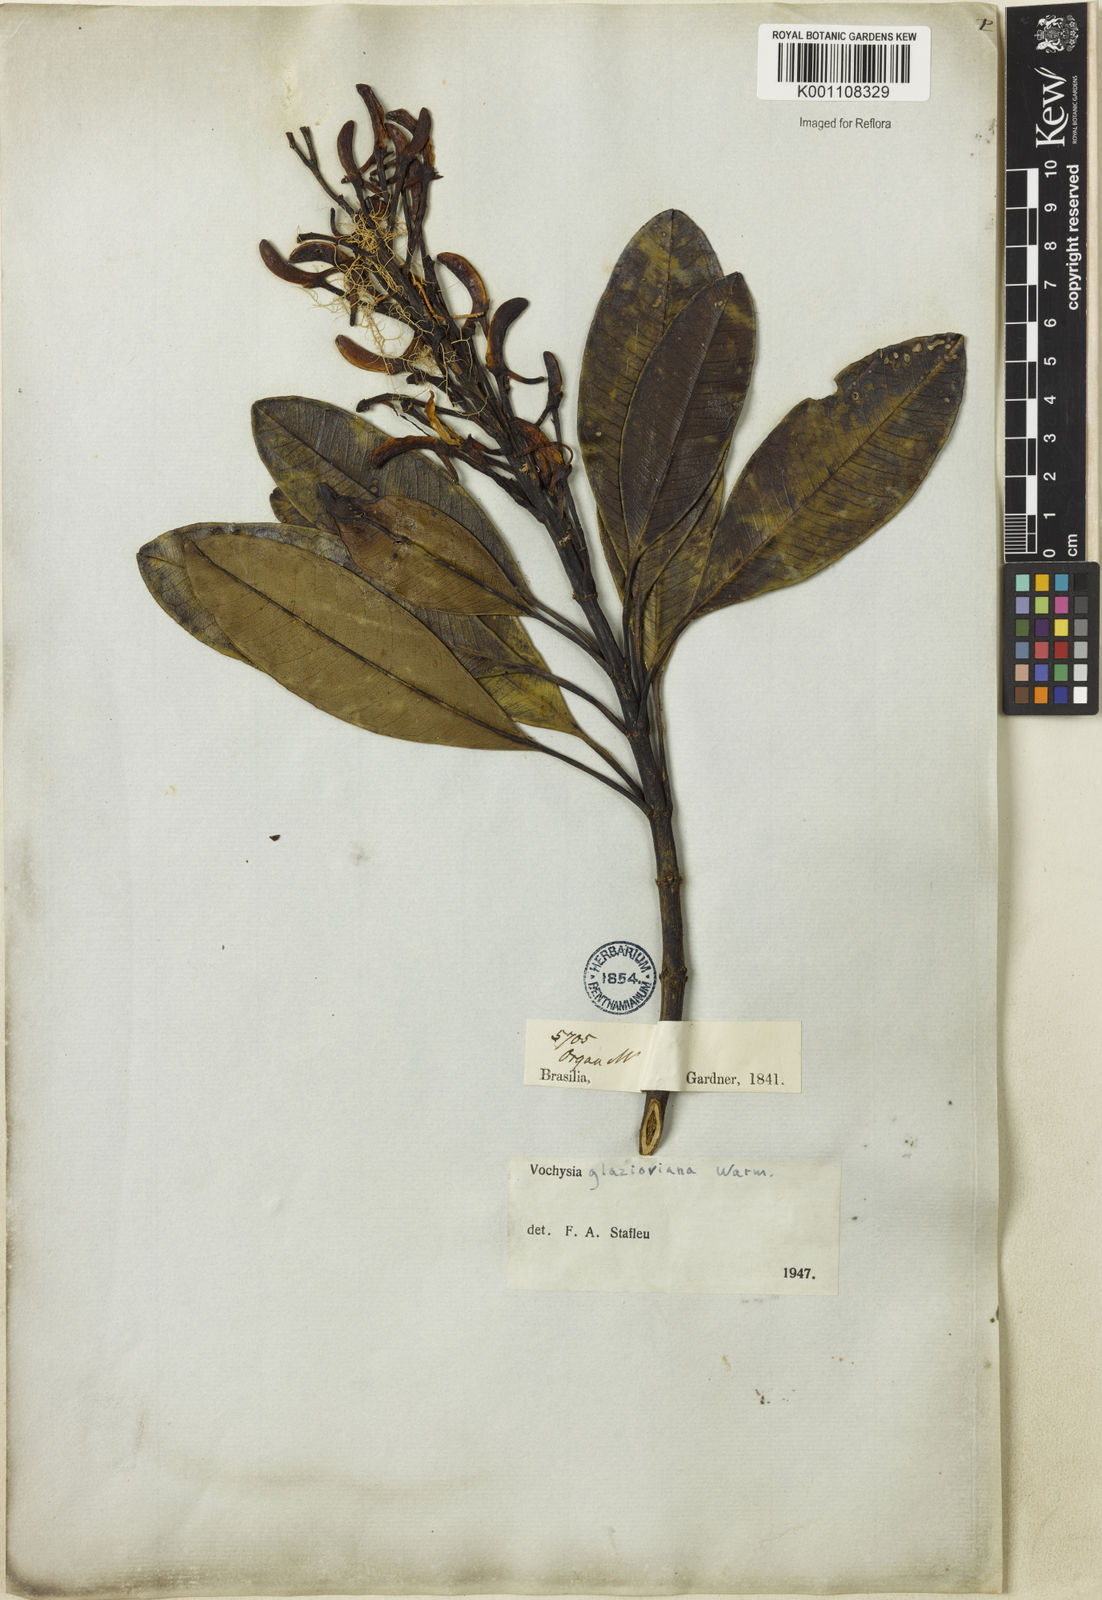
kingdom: Plantae
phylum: Tracheophyta
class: Magnoliopsida
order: Myrtales
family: Vochysiaceae
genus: Vochysia
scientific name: Vochysia glazioviana
